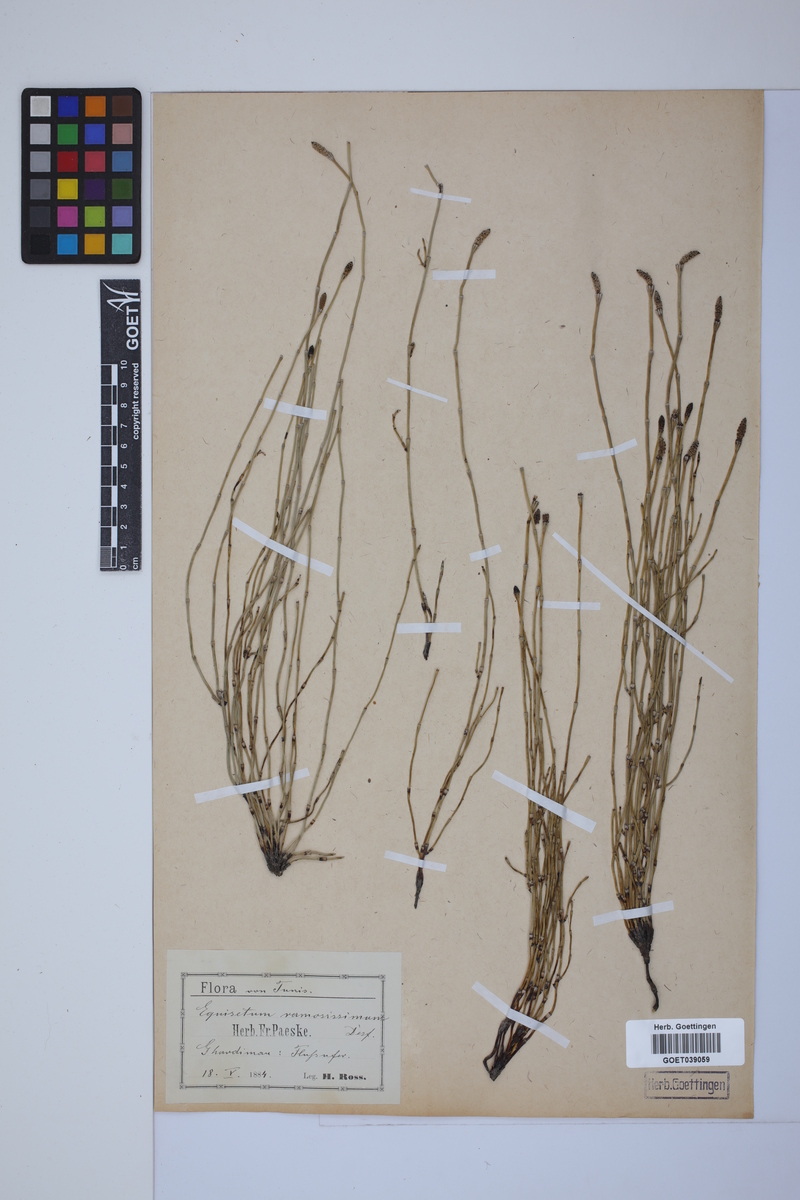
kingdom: Plantae
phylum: Tracheophyta
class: Polypodiopsida
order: Equisetales
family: Equisetaceae
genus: Equisetum
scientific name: Equisetum giganteum
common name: Giant horsetail
